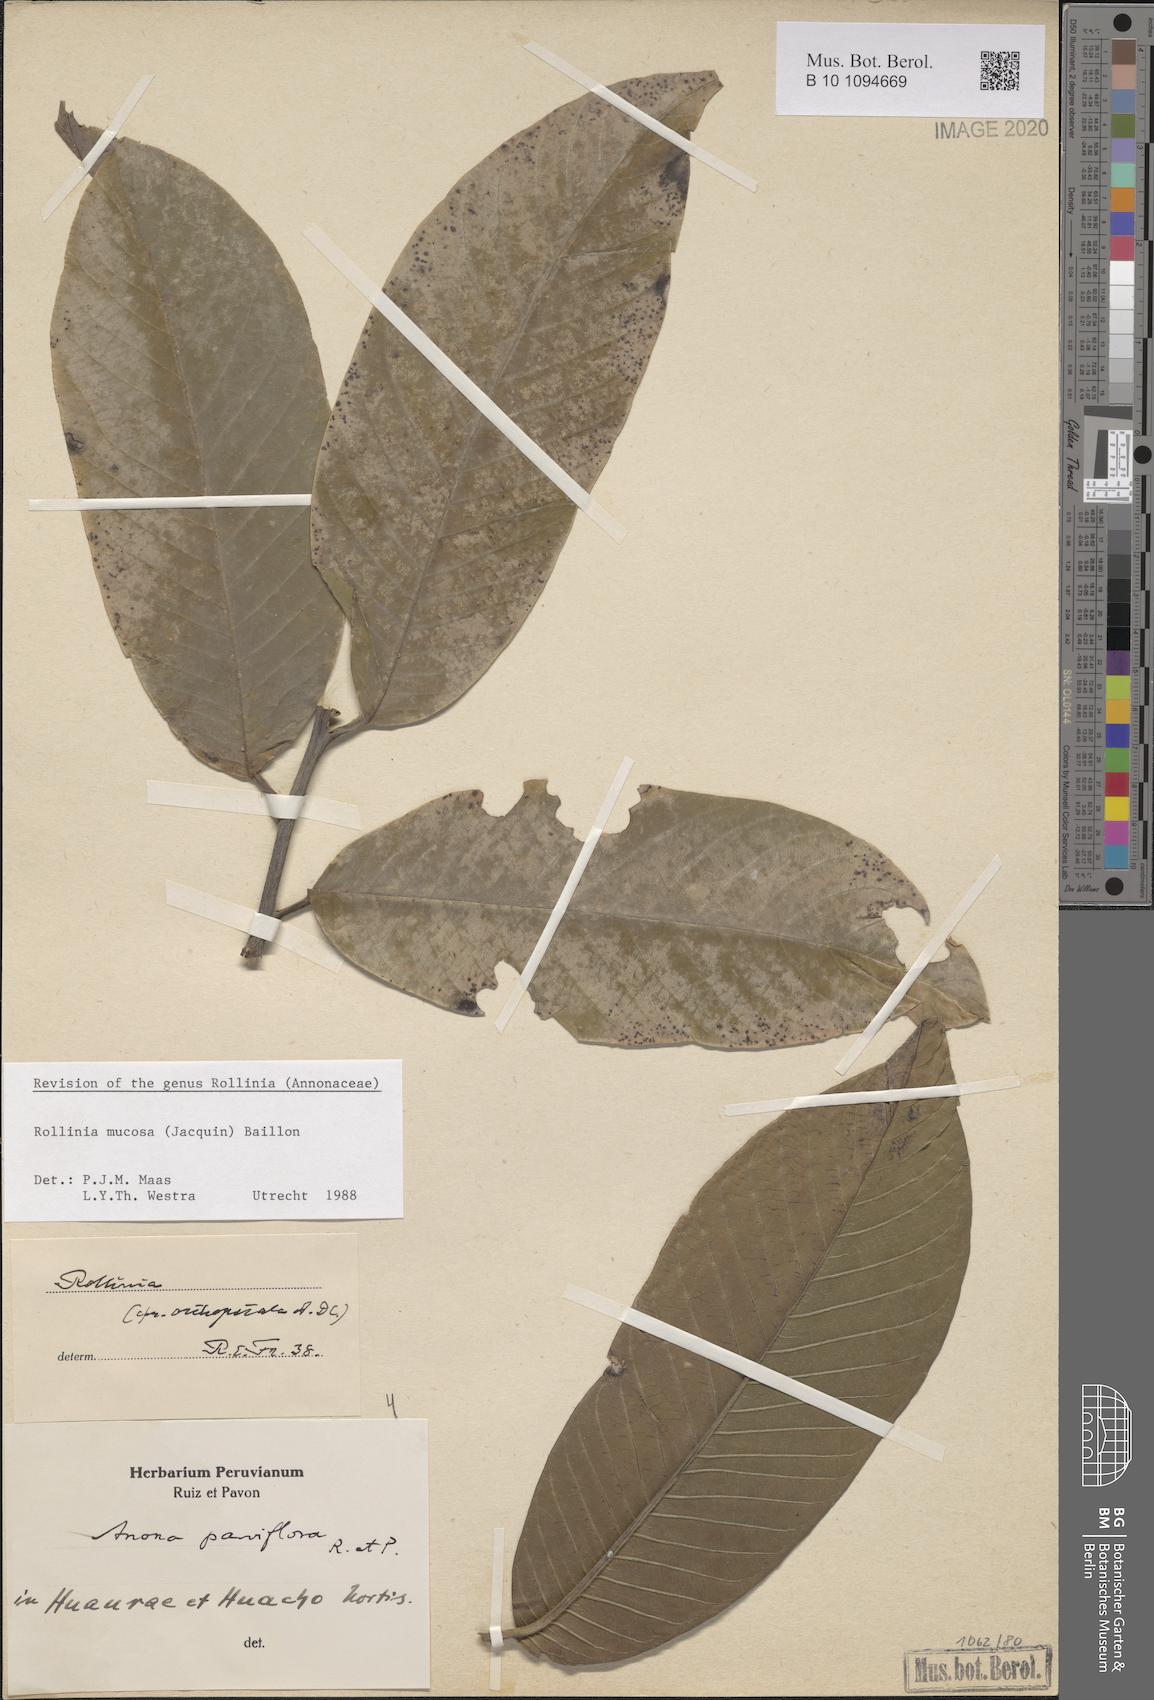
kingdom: Plantae
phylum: Tracheophyta
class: Magnoliopsida
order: Magnoliales
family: Annonaceae
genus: Annona
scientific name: Annona mucosa
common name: Sugar apple
